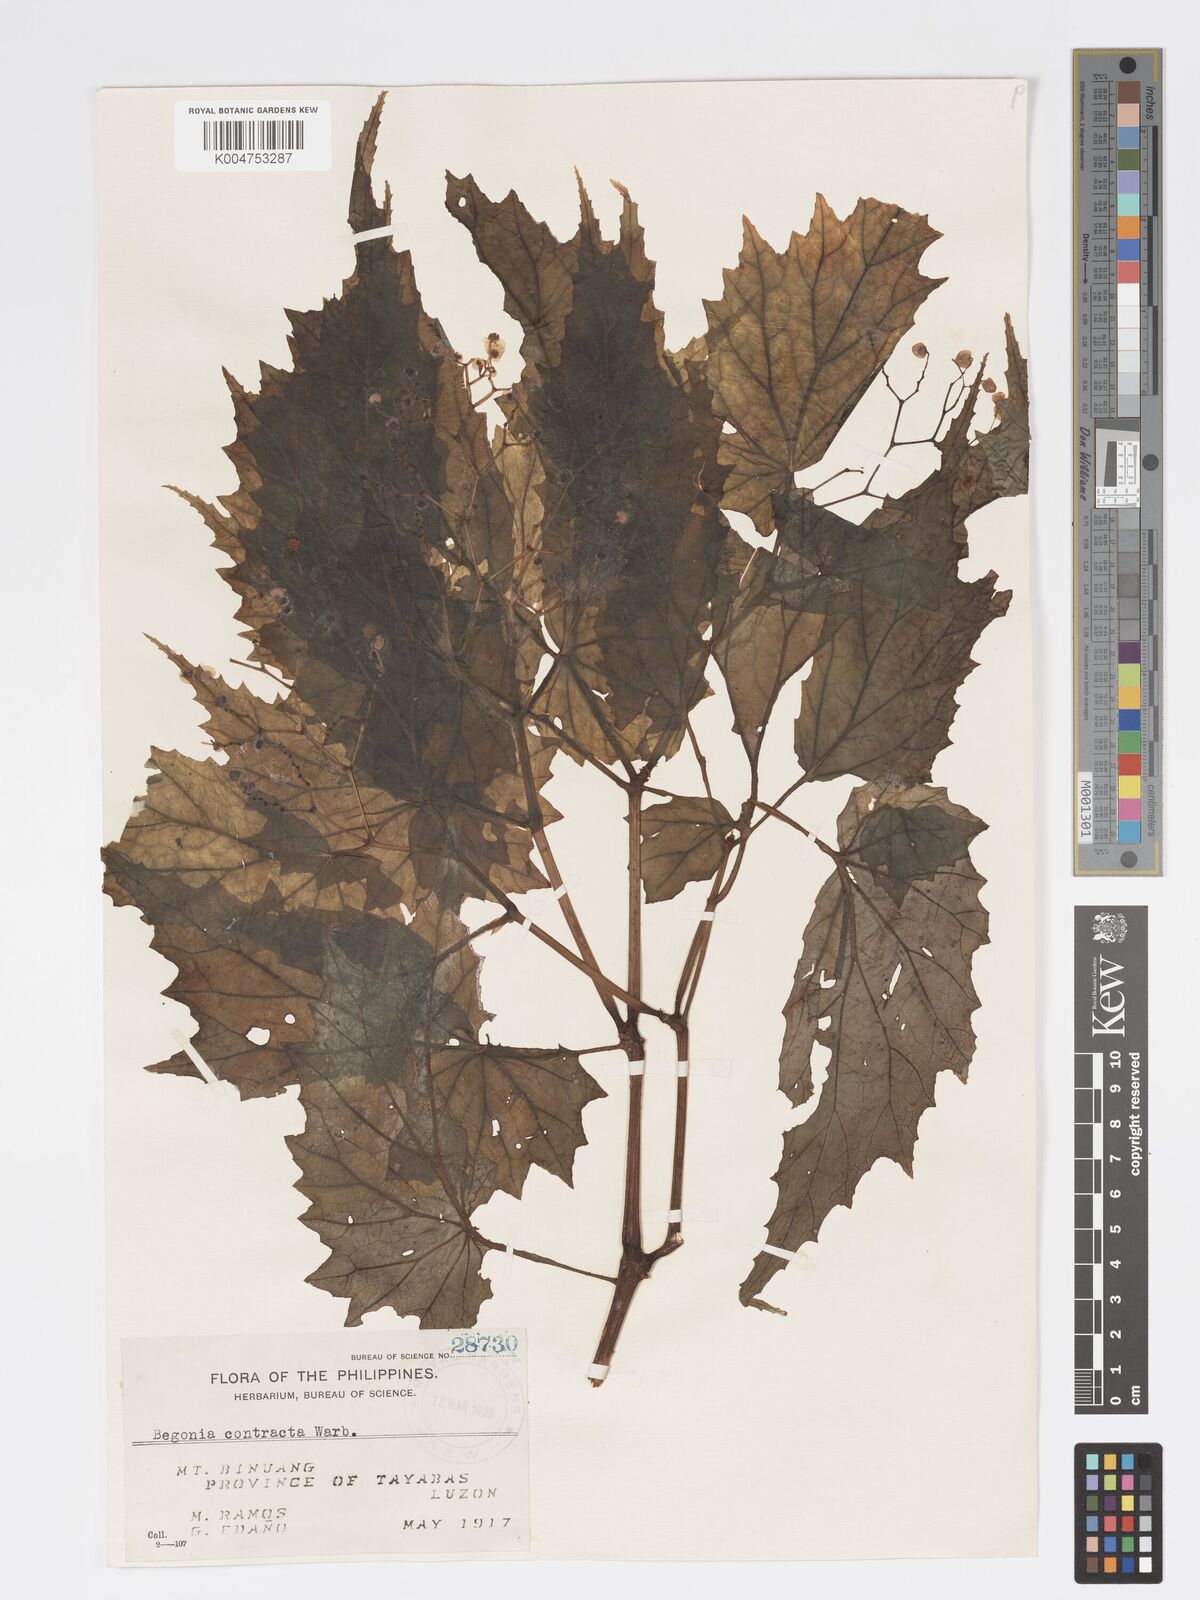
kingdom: Plantae
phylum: Tracheophyta
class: Magnoliopsida
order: Cucurbitales
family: Begoniaceae
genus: Begonia
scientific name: Begonia contracta
